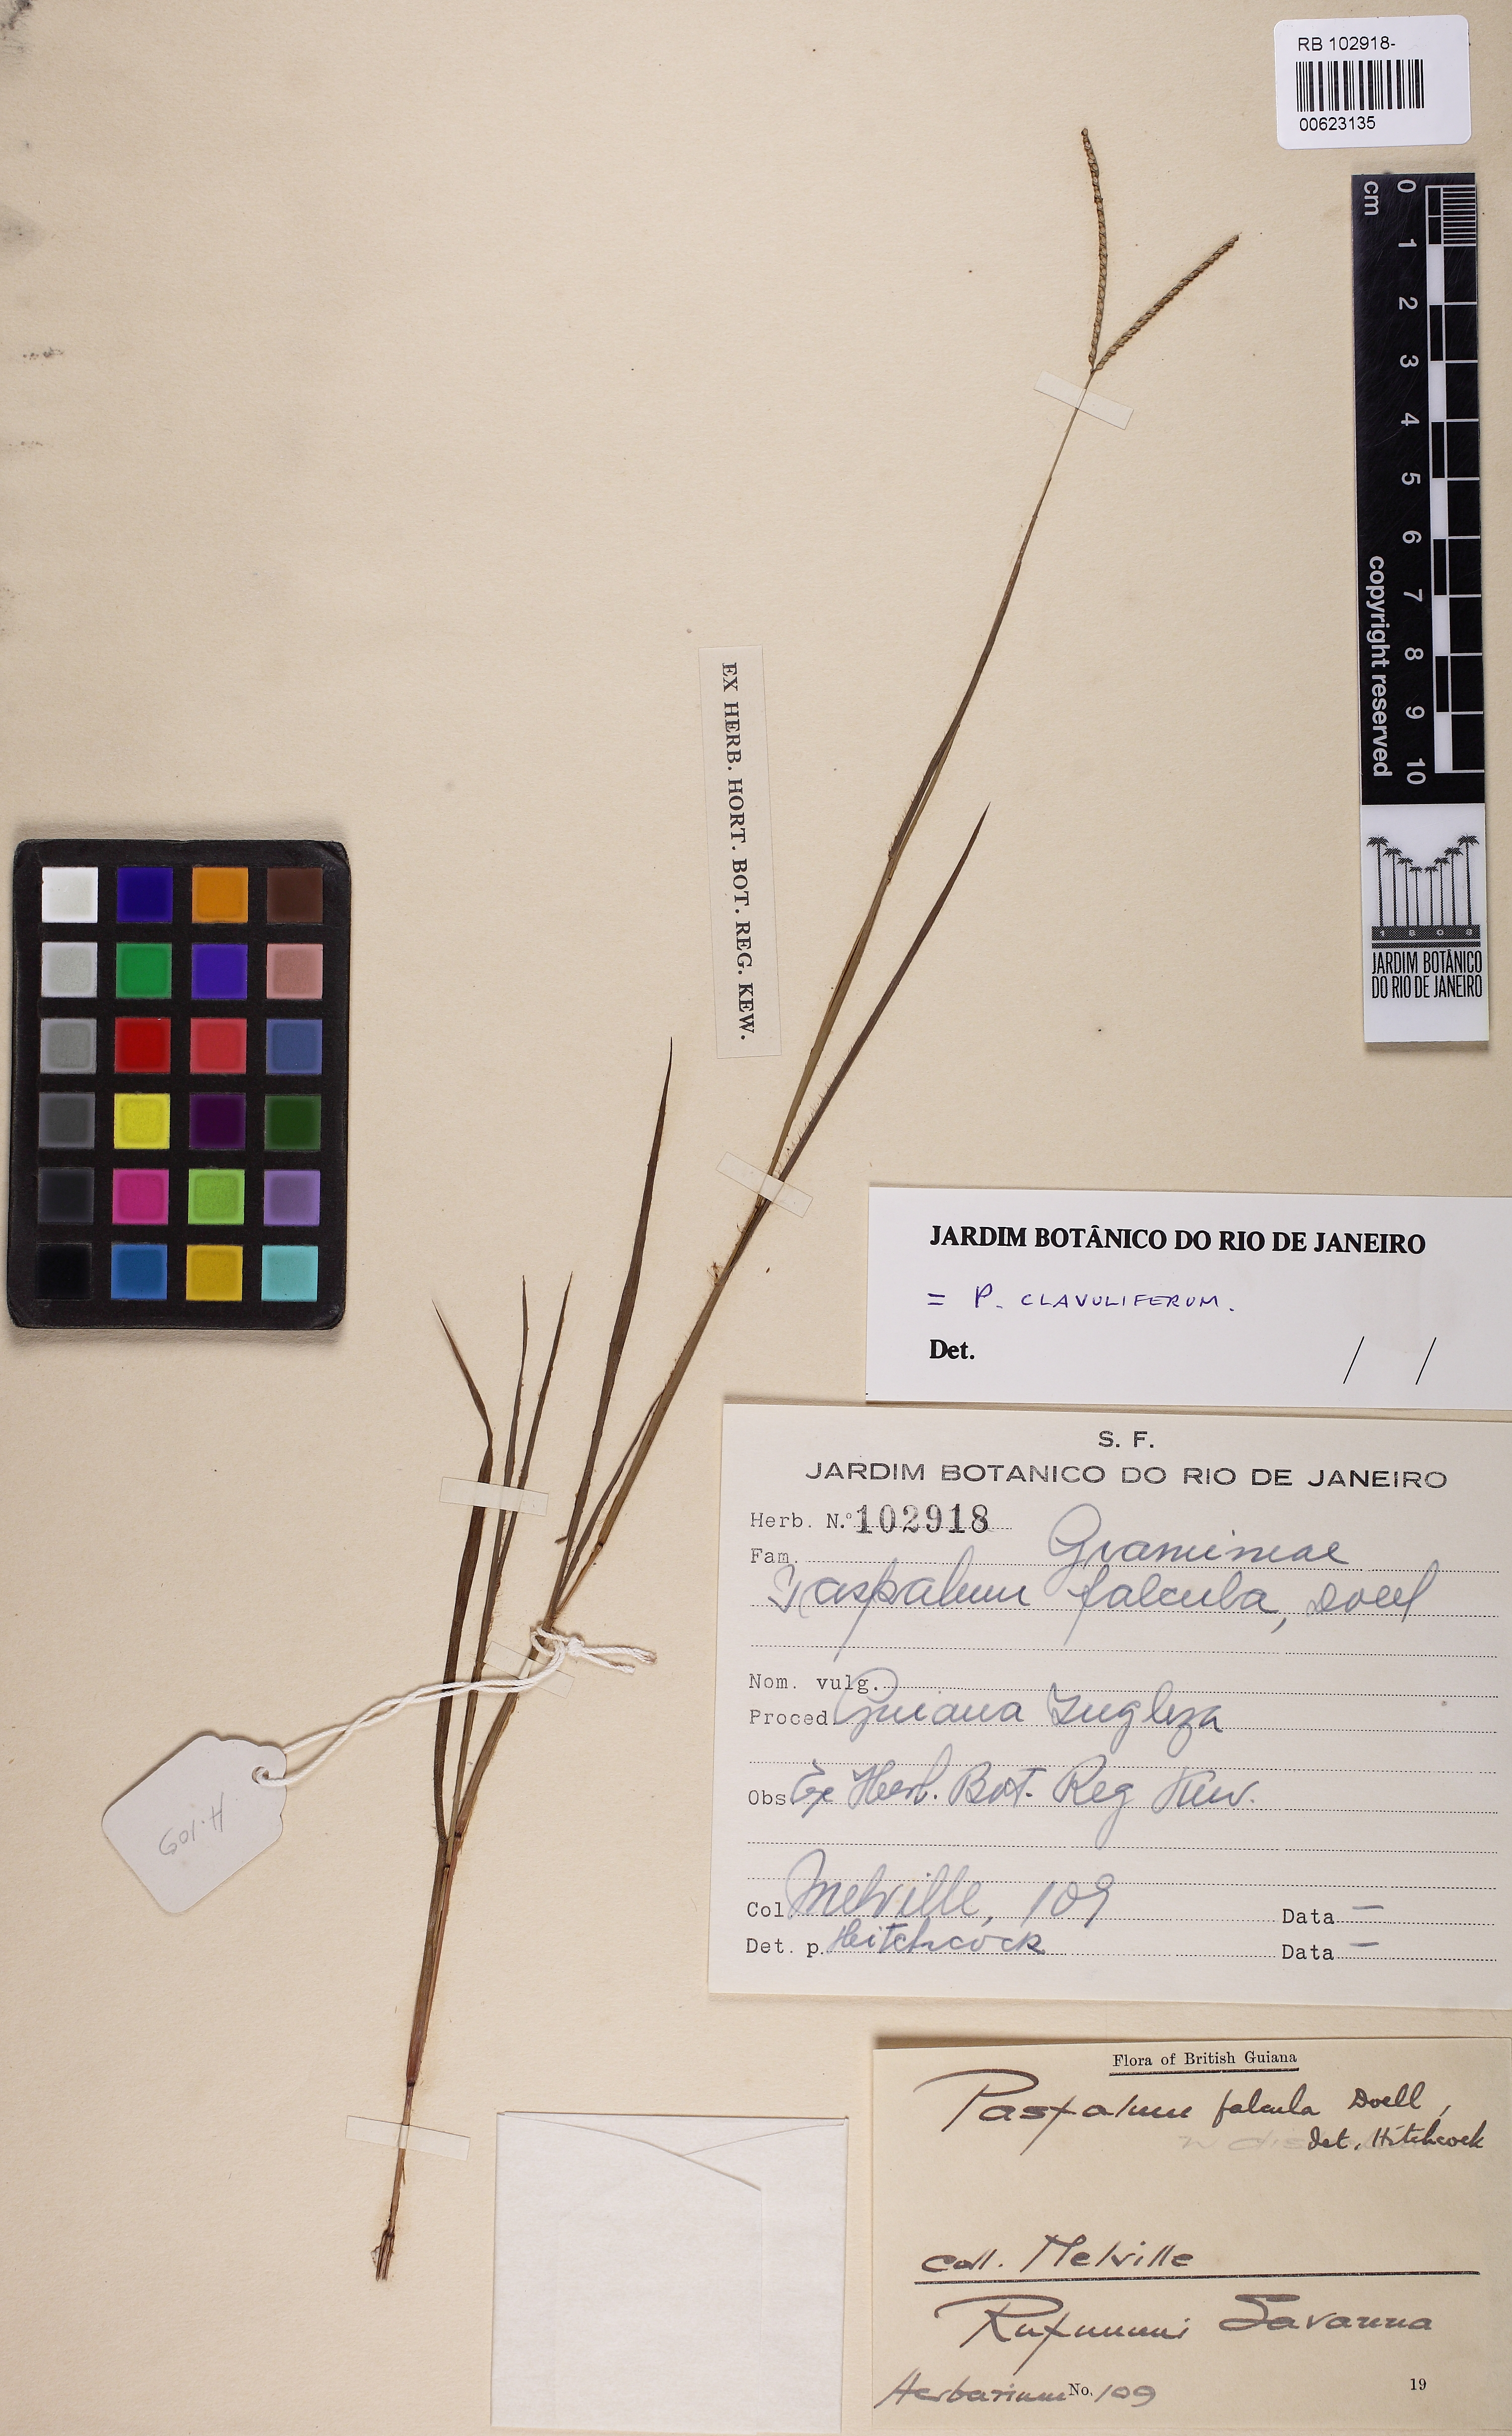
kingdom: Plantae
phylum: Tracheophyta
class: Liliopsida
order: Poales
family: Poaceae
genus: Paspalum
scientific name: Paspalum clavuliferum
